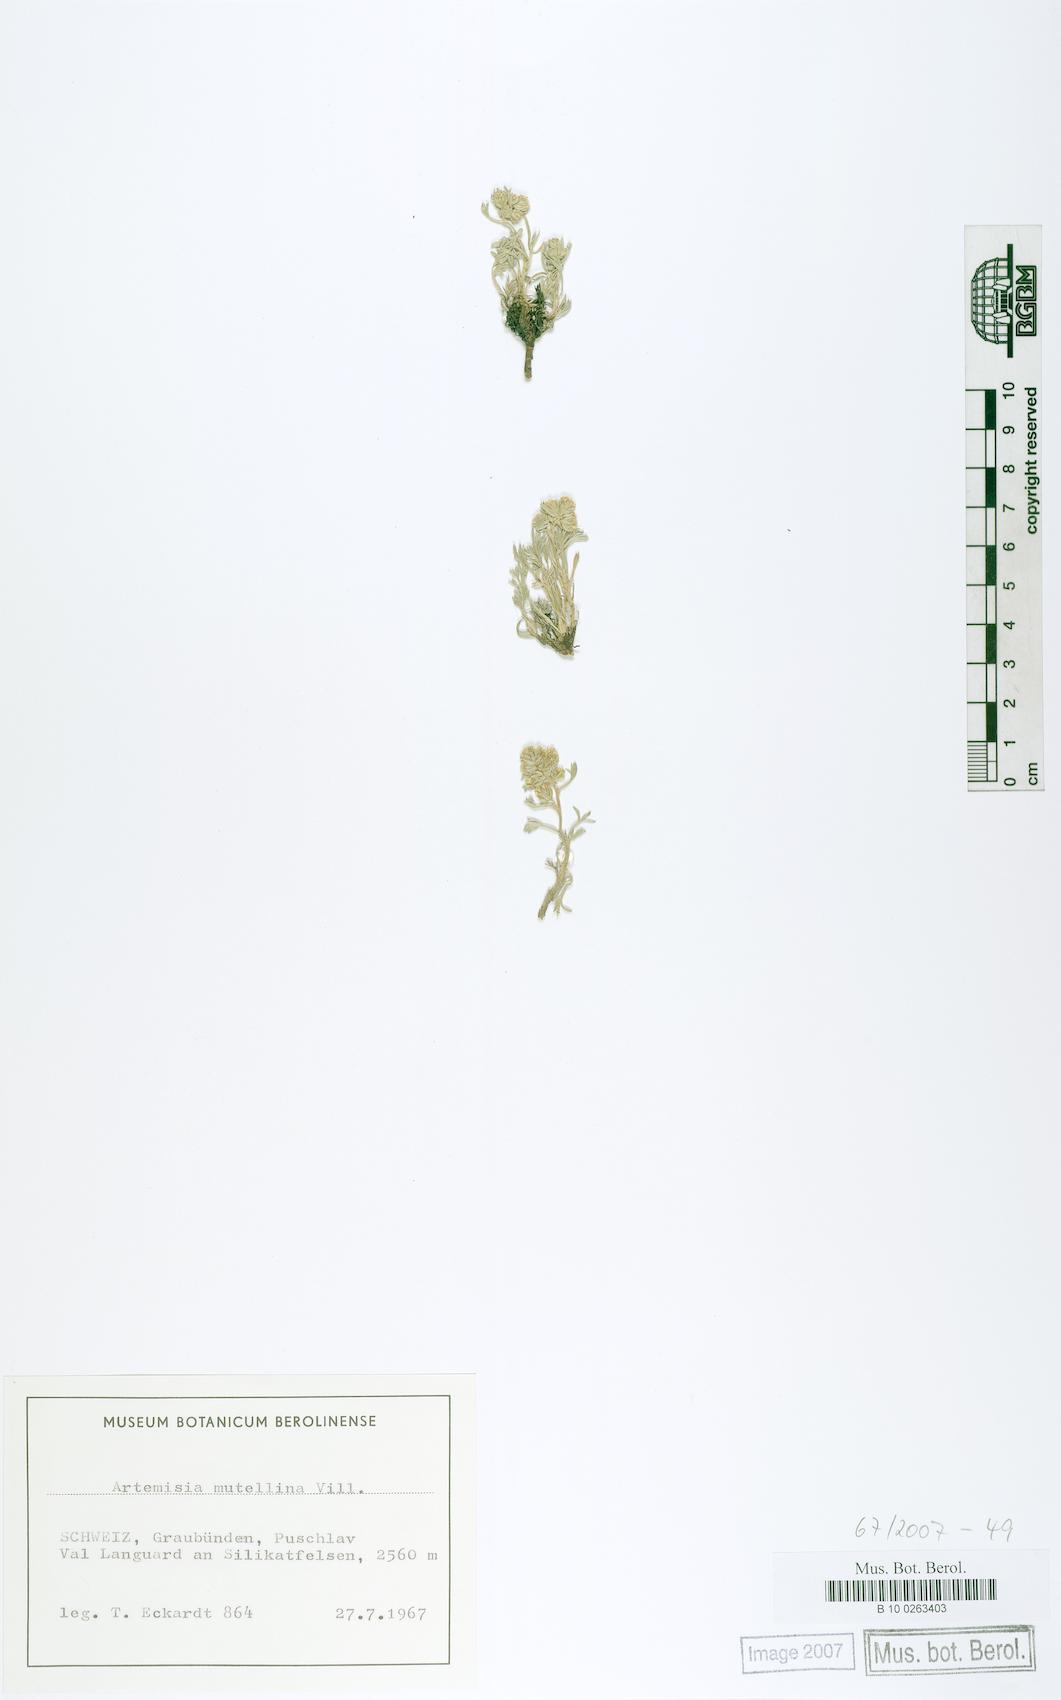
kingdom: Plantae
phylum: Tracheophyta
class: Magnoliopsida
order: Asterales
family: Asteraceae
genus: Artemisia
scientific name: Artemisia mutellina
